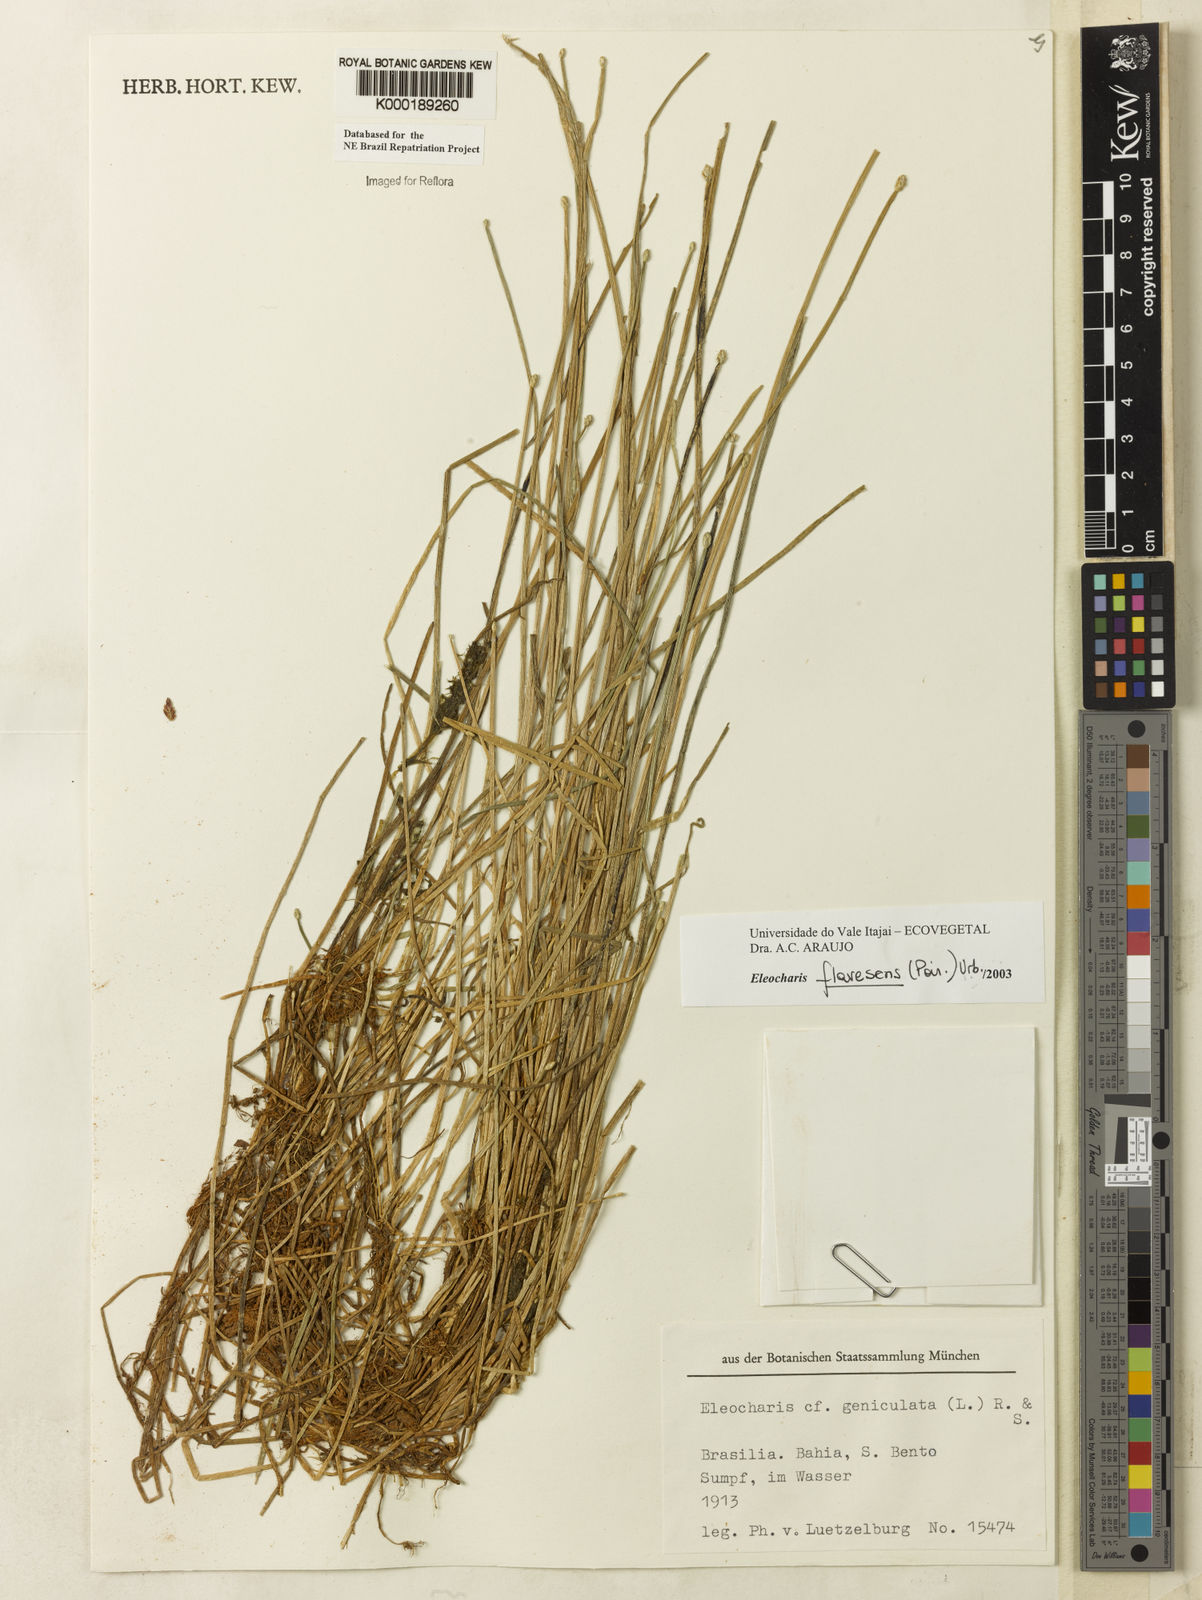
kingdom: Plantae
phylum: Tracheophyta
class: Liliopsida
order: Poales
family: Cyperaceae
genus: Eleocharis
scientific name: Eleocharis flavescens
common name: Yellow spikerush
